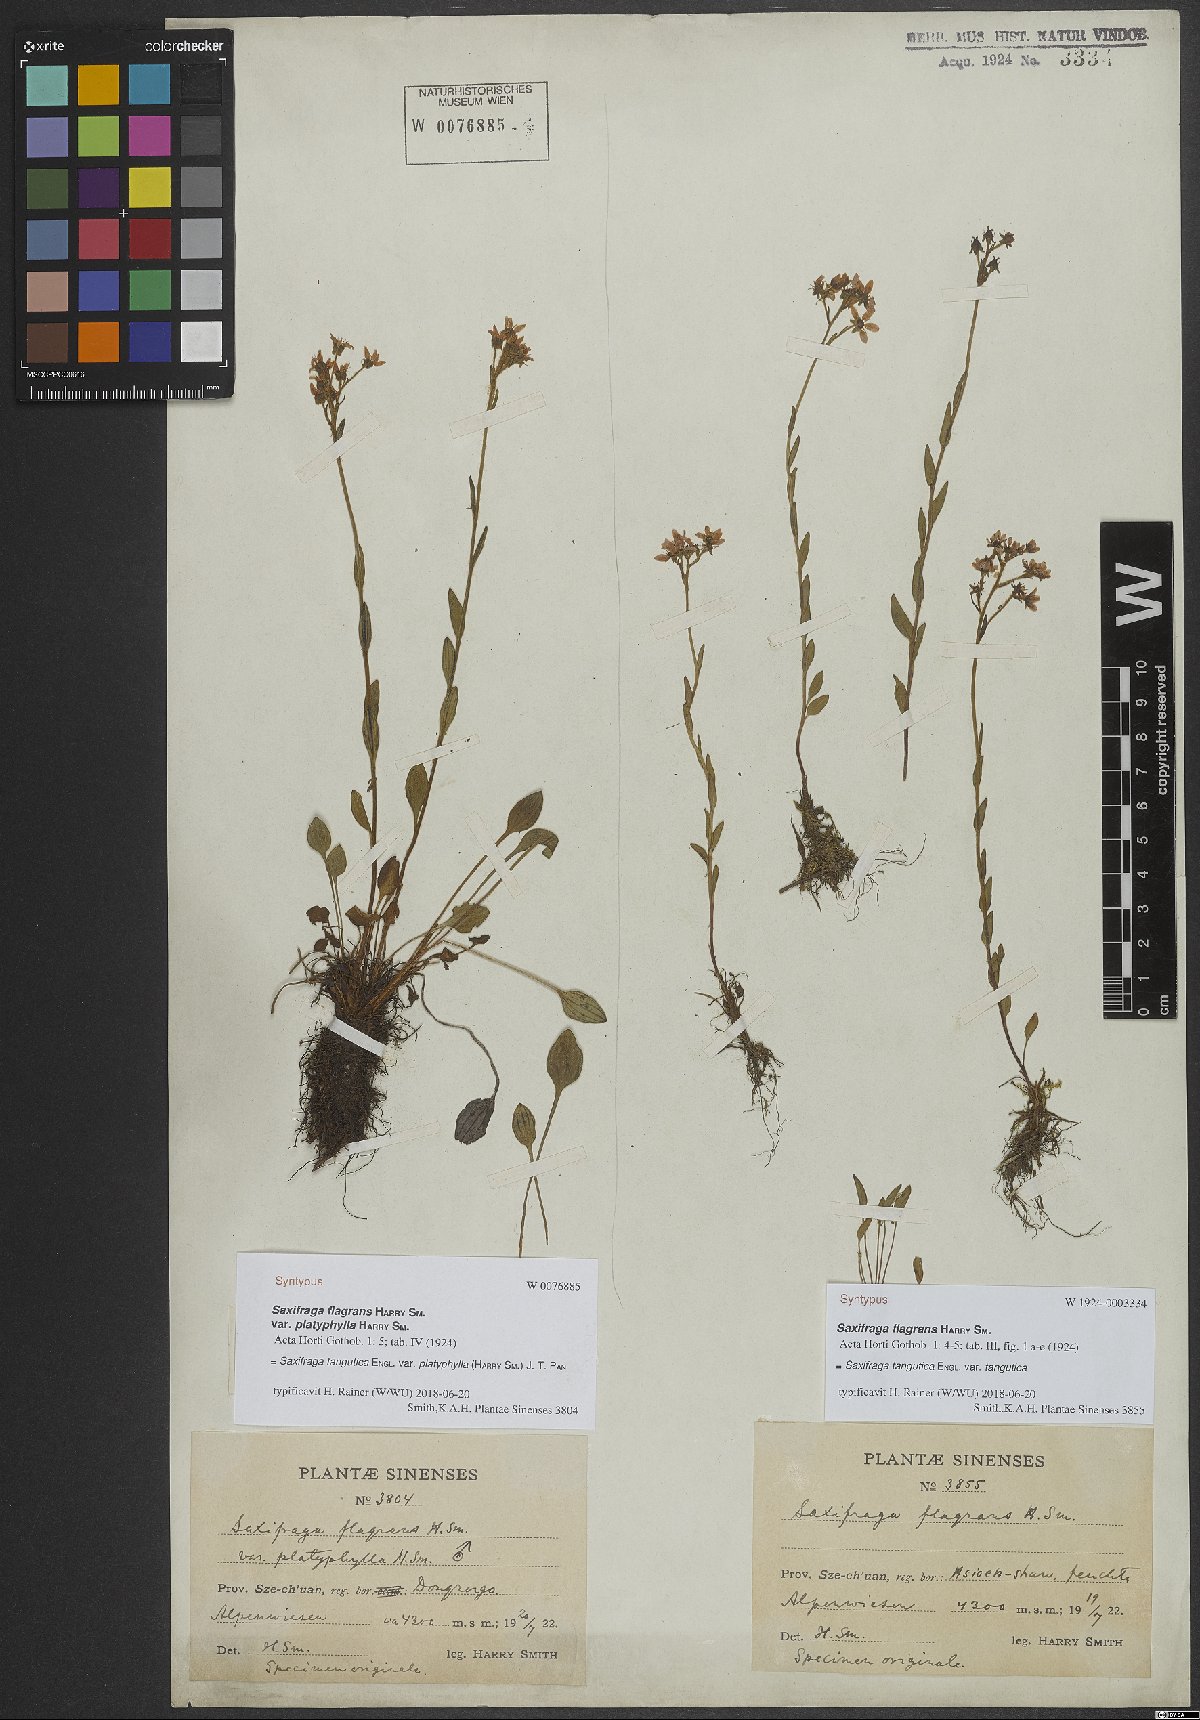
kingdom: Plantae
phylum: Tracheophyta
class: Magnoliopsida
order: Saxifragales
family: Saxifragaceae
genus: Saxifraga
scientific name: Saxifraga tangutica
